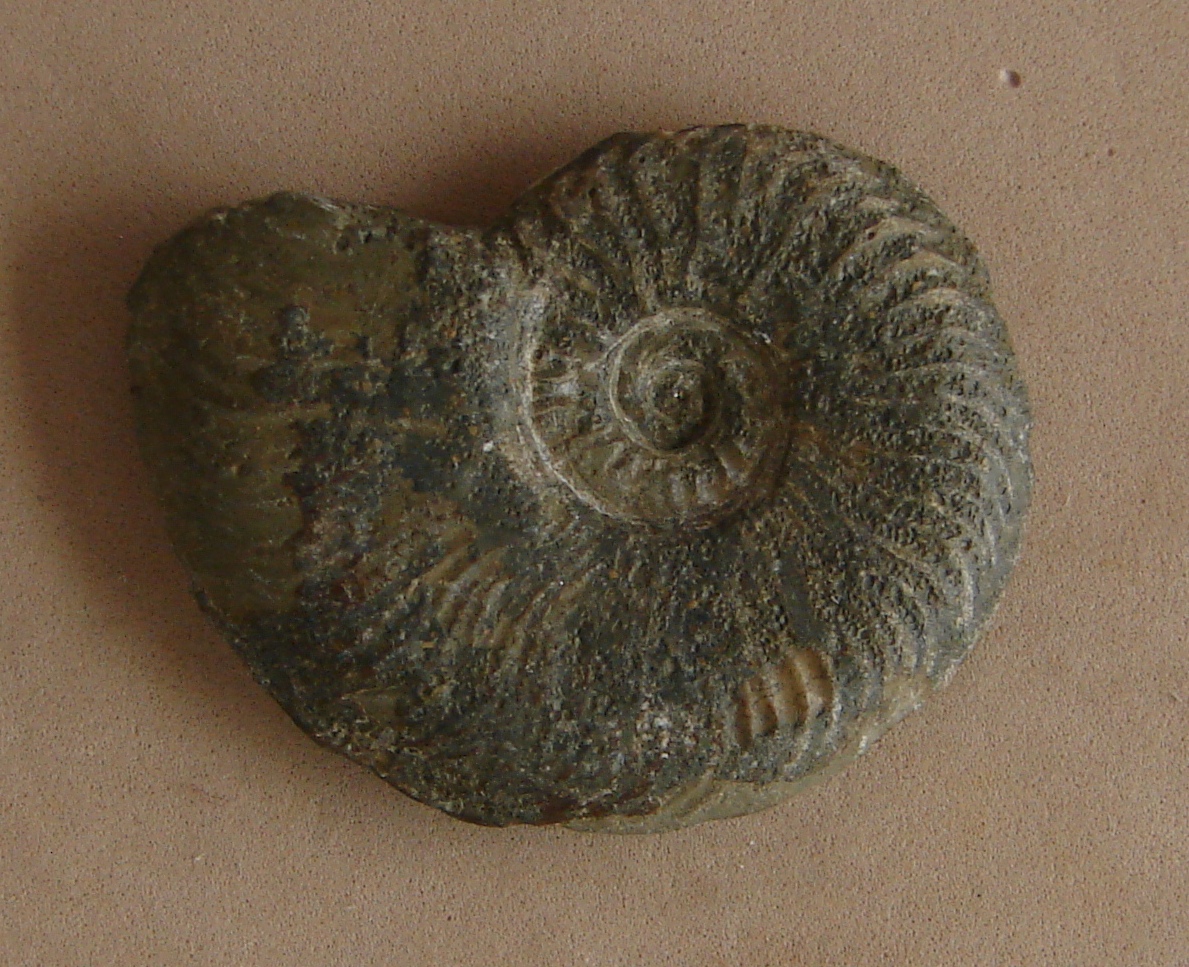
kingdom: Animalia
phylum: Mollusca
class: Cephalopoda
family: Hildoceratidae
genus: Pleydellia
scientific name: Pleydellia aalensis
